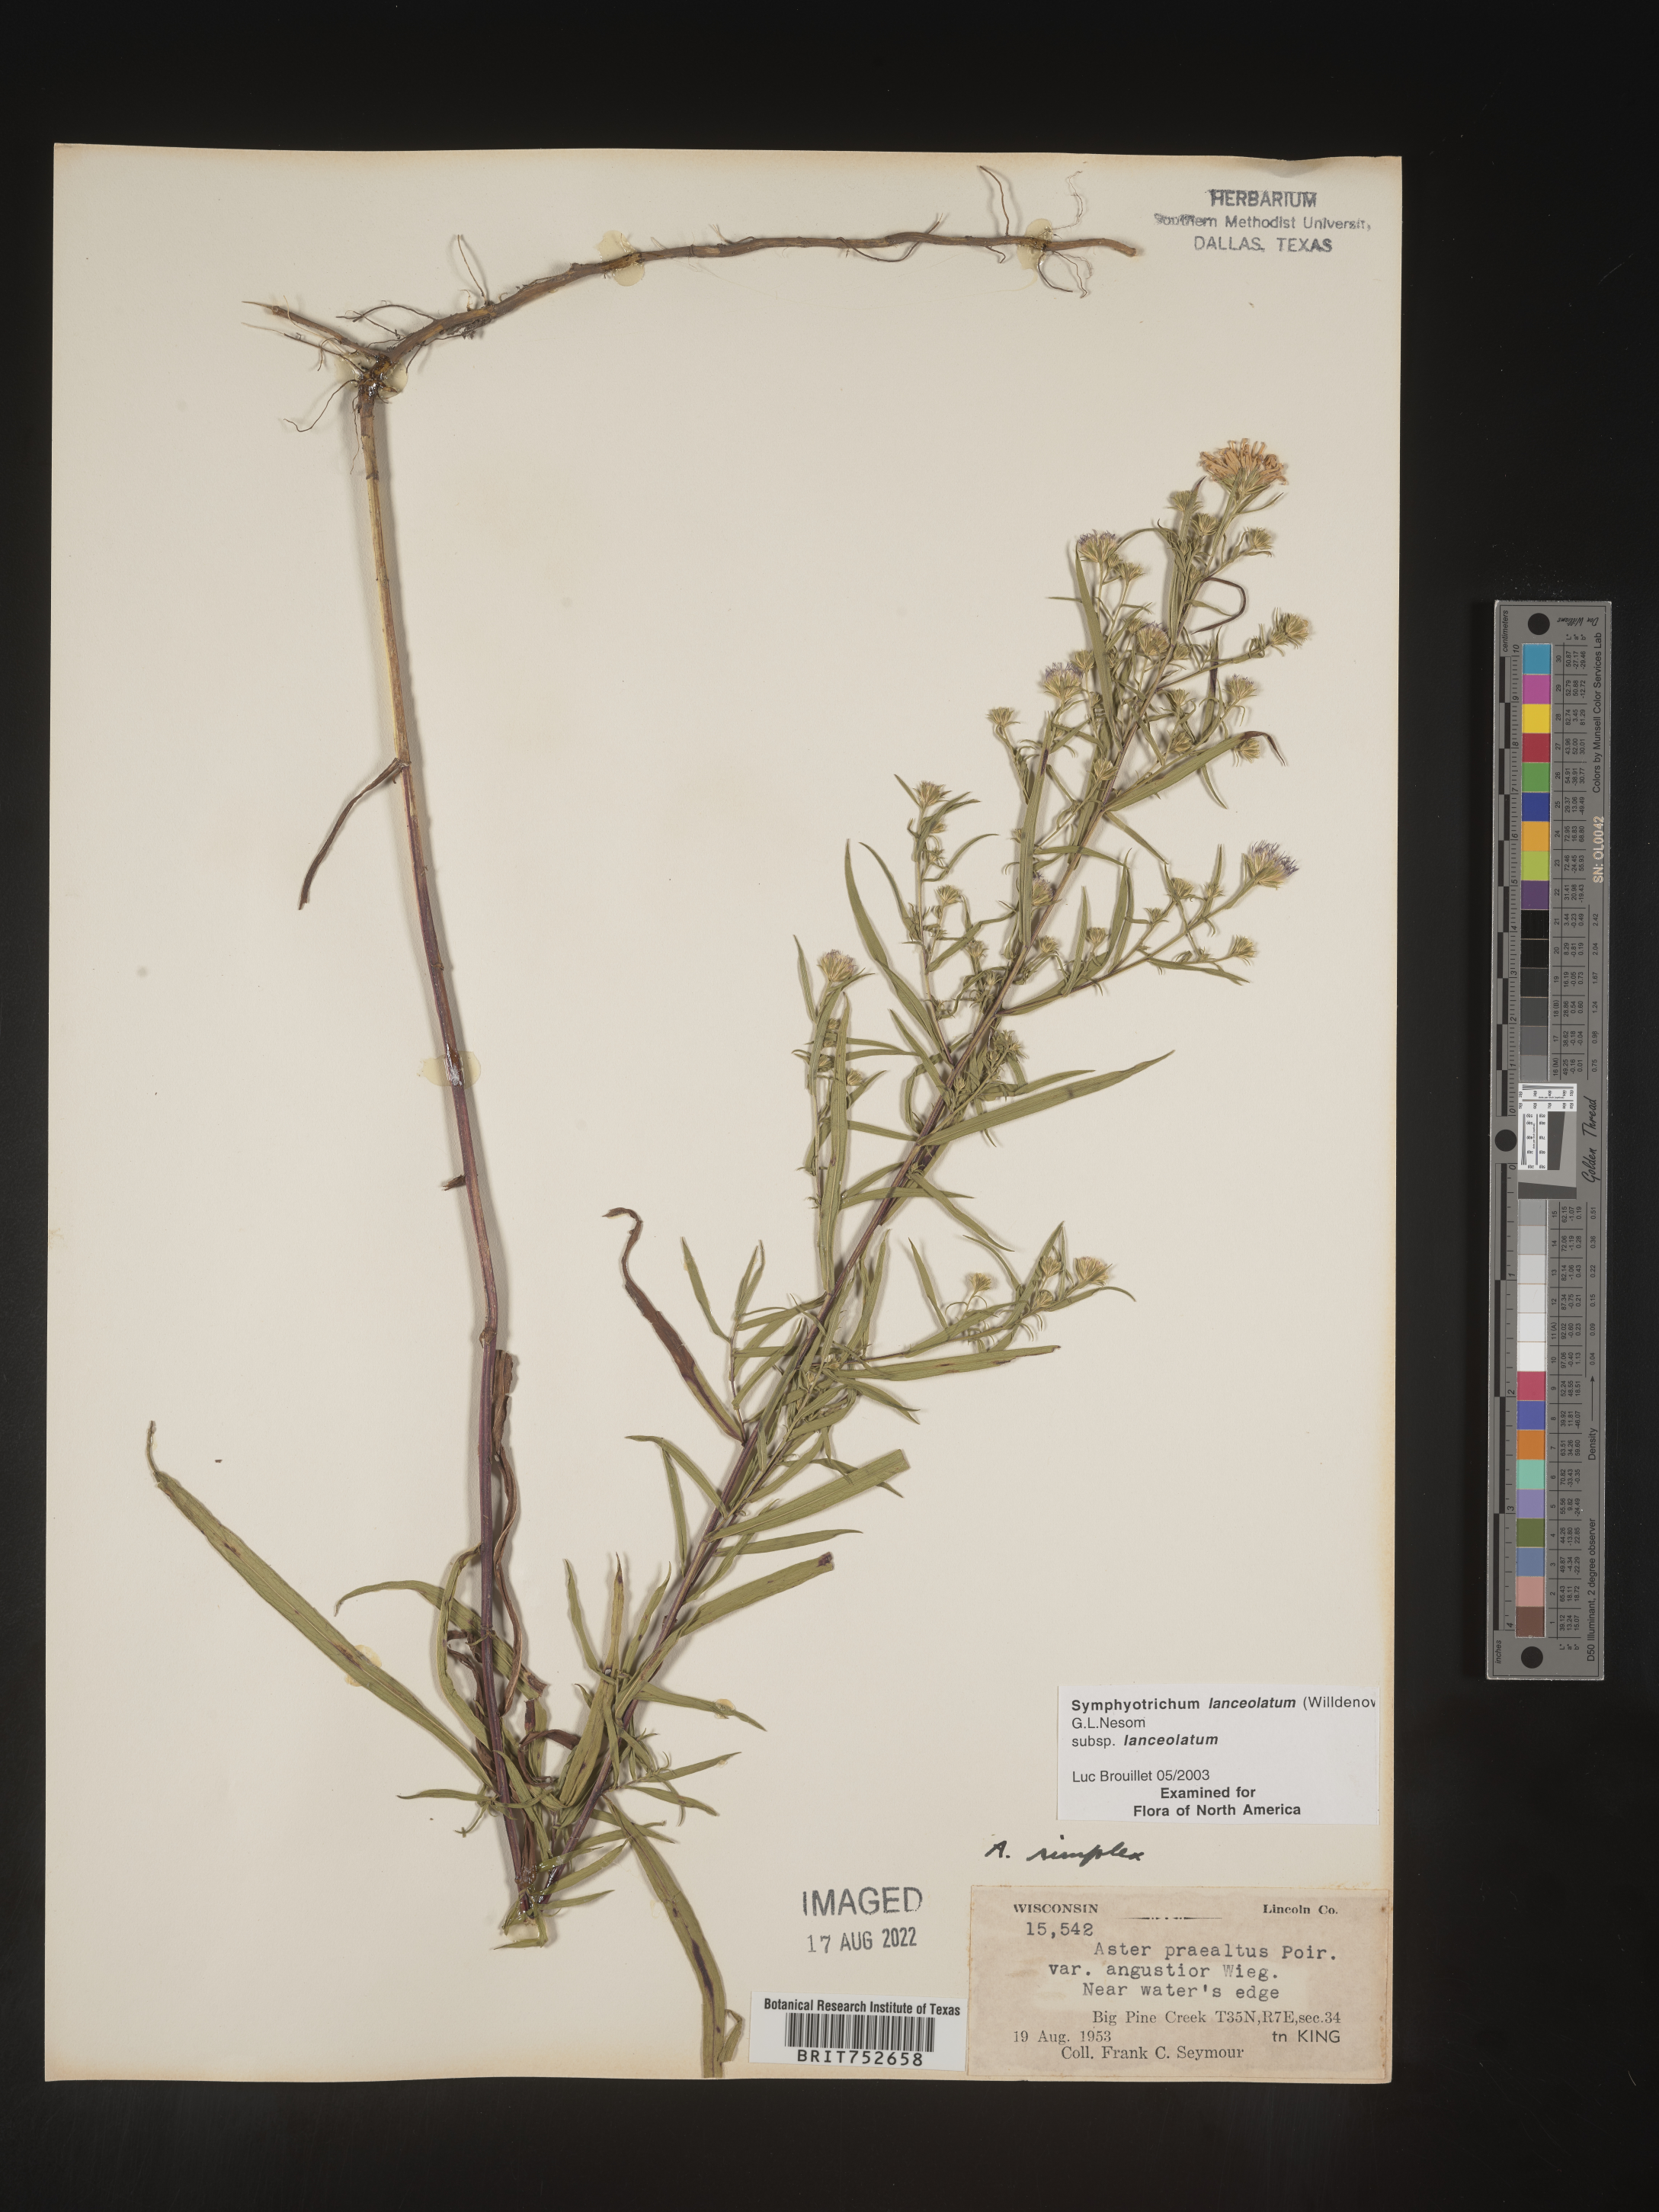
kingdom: Plantae
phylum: Tracheophyta
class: Magnoliopsida
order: Asterales
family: Asteraceae
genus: Symphyotrichum
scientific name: Symphyotrichum lanceolatum
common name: Panicled aster
